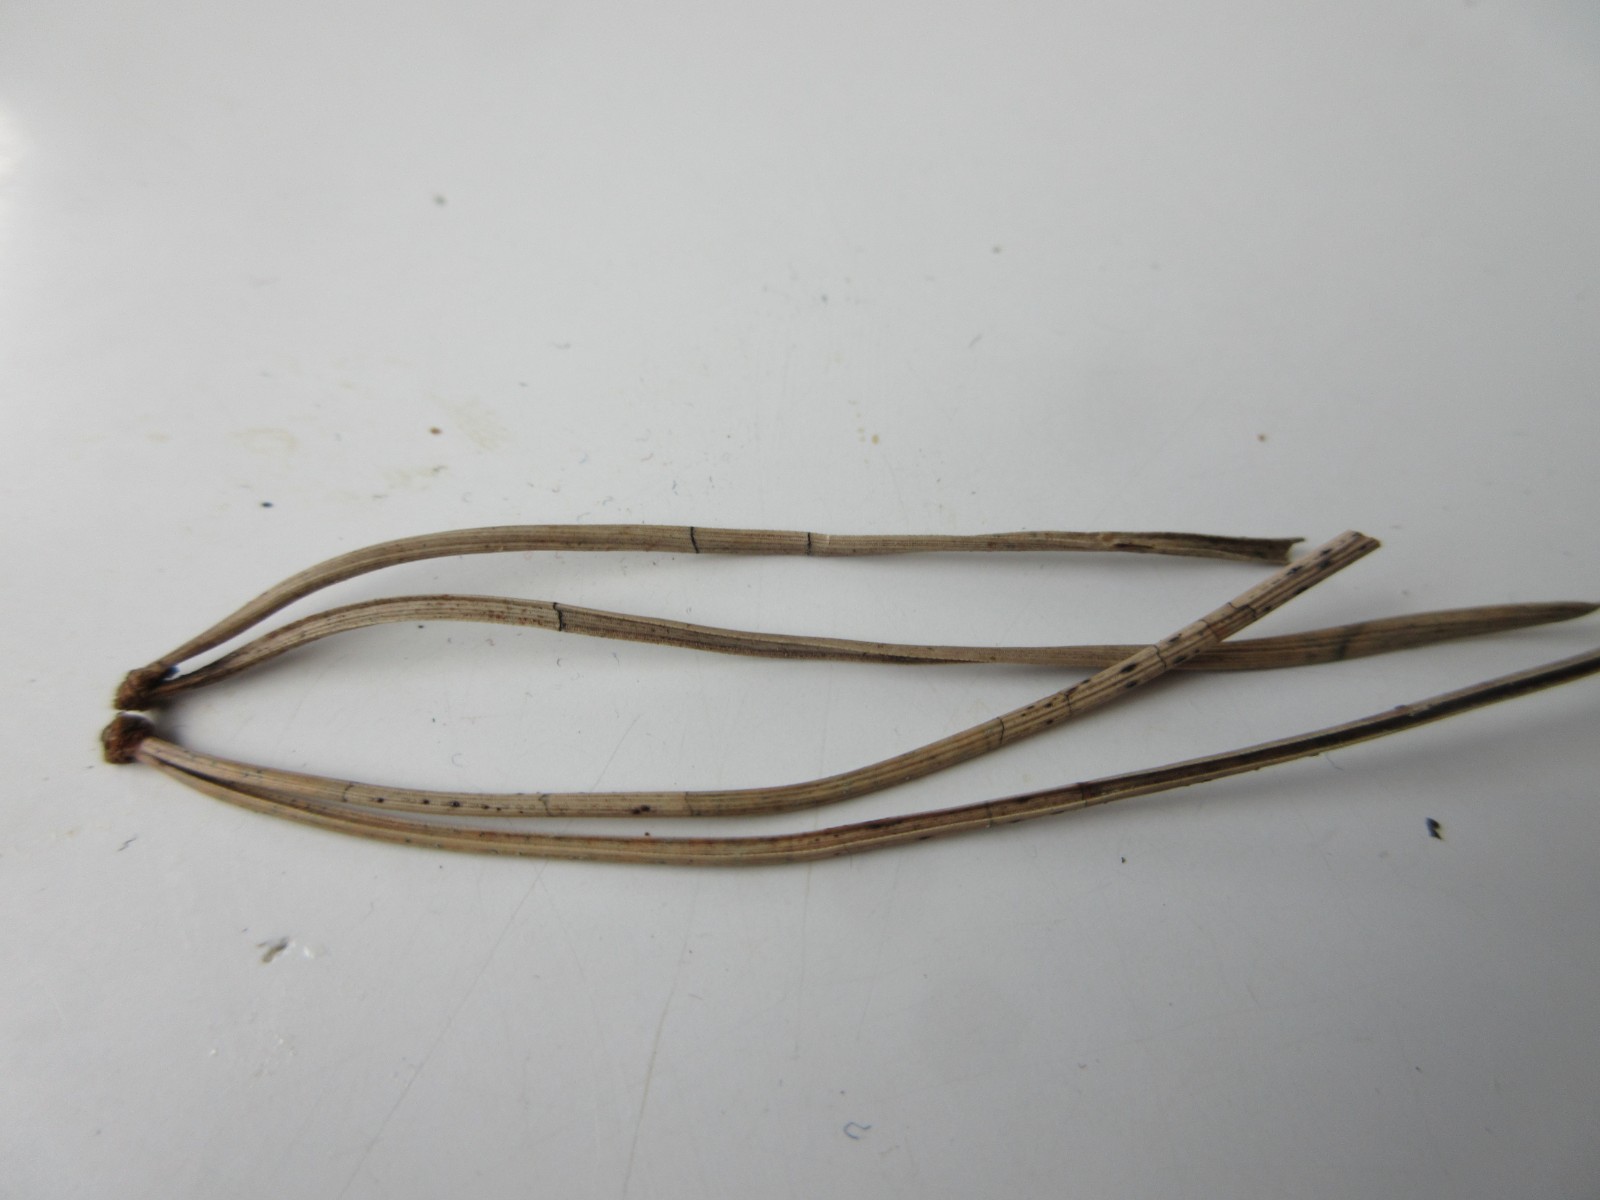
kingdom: Fungi
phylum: Ascomycota
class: Leotiomycetes
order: Rhytismatales
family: Rhytismataceae
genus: Lophodermium
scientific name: Lophodermium pinastri
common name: fyrre-fureplet
